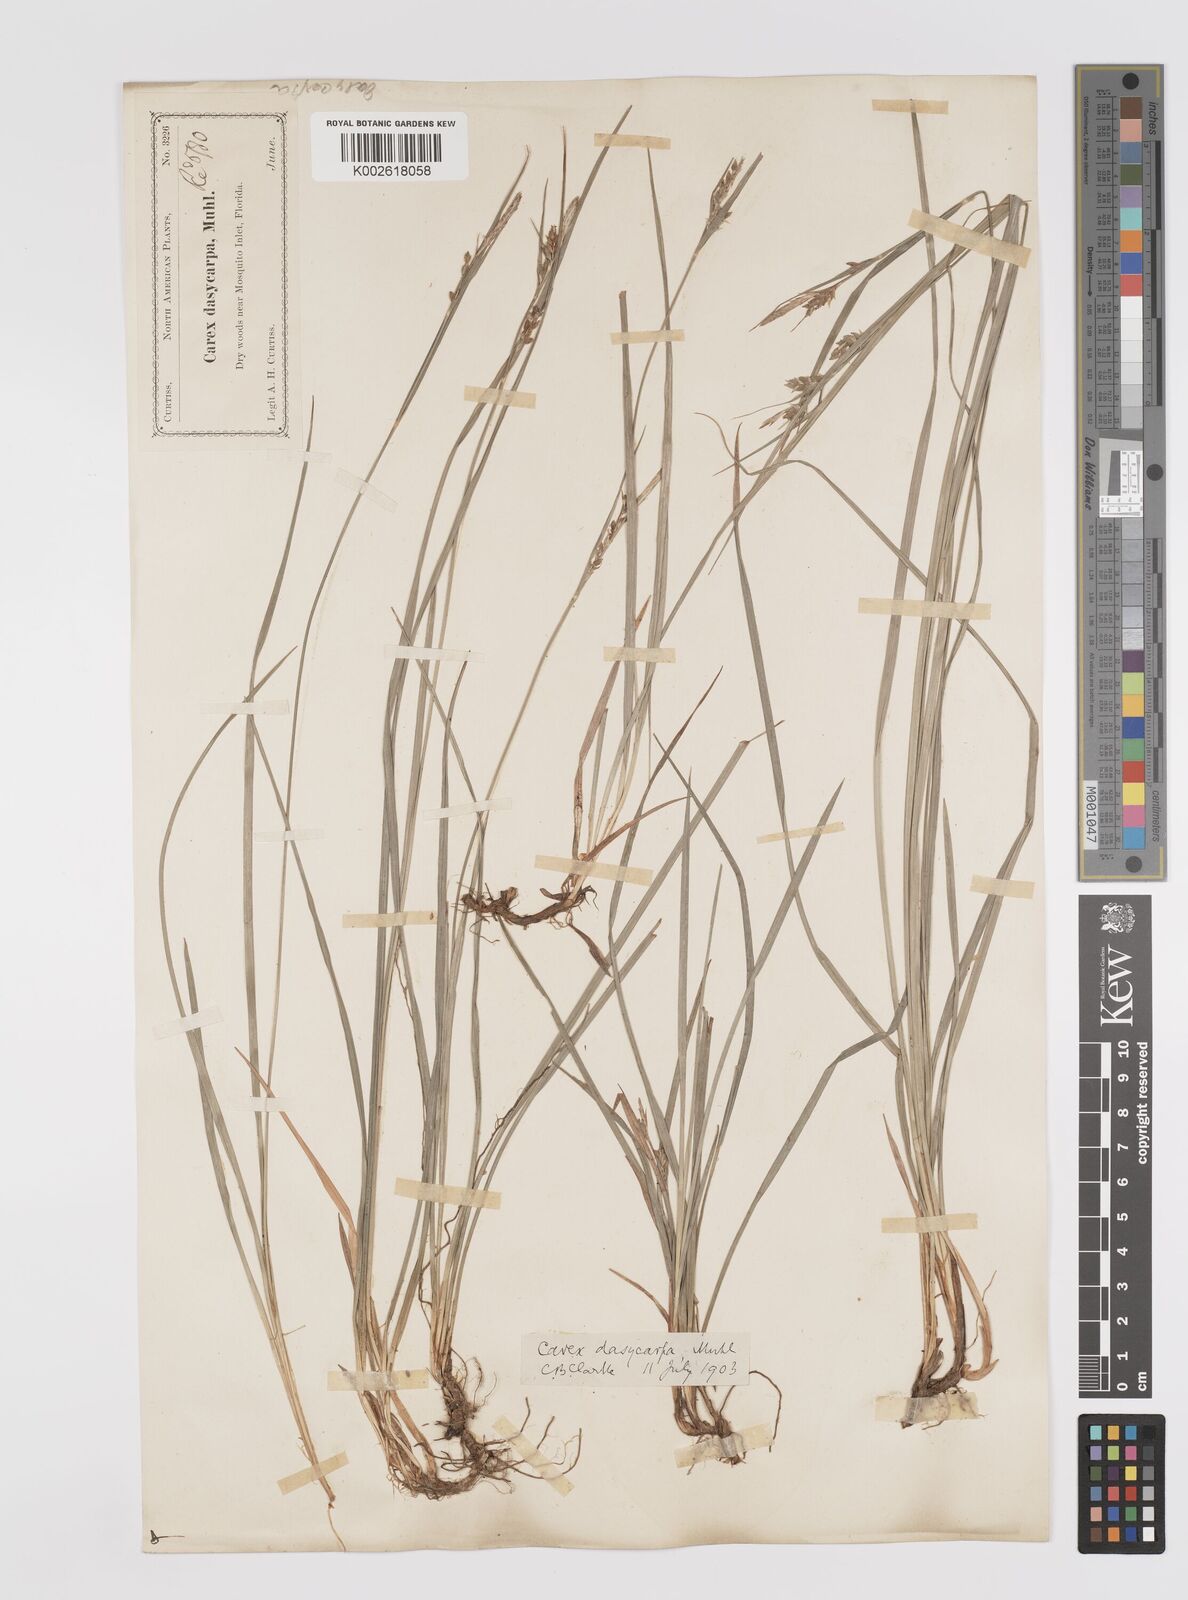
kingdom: Plantae
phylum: Tracheophyta
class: Liliopsida
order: Poales
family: Cyperaceae
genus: Carex
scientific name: Carex dasycarpa
